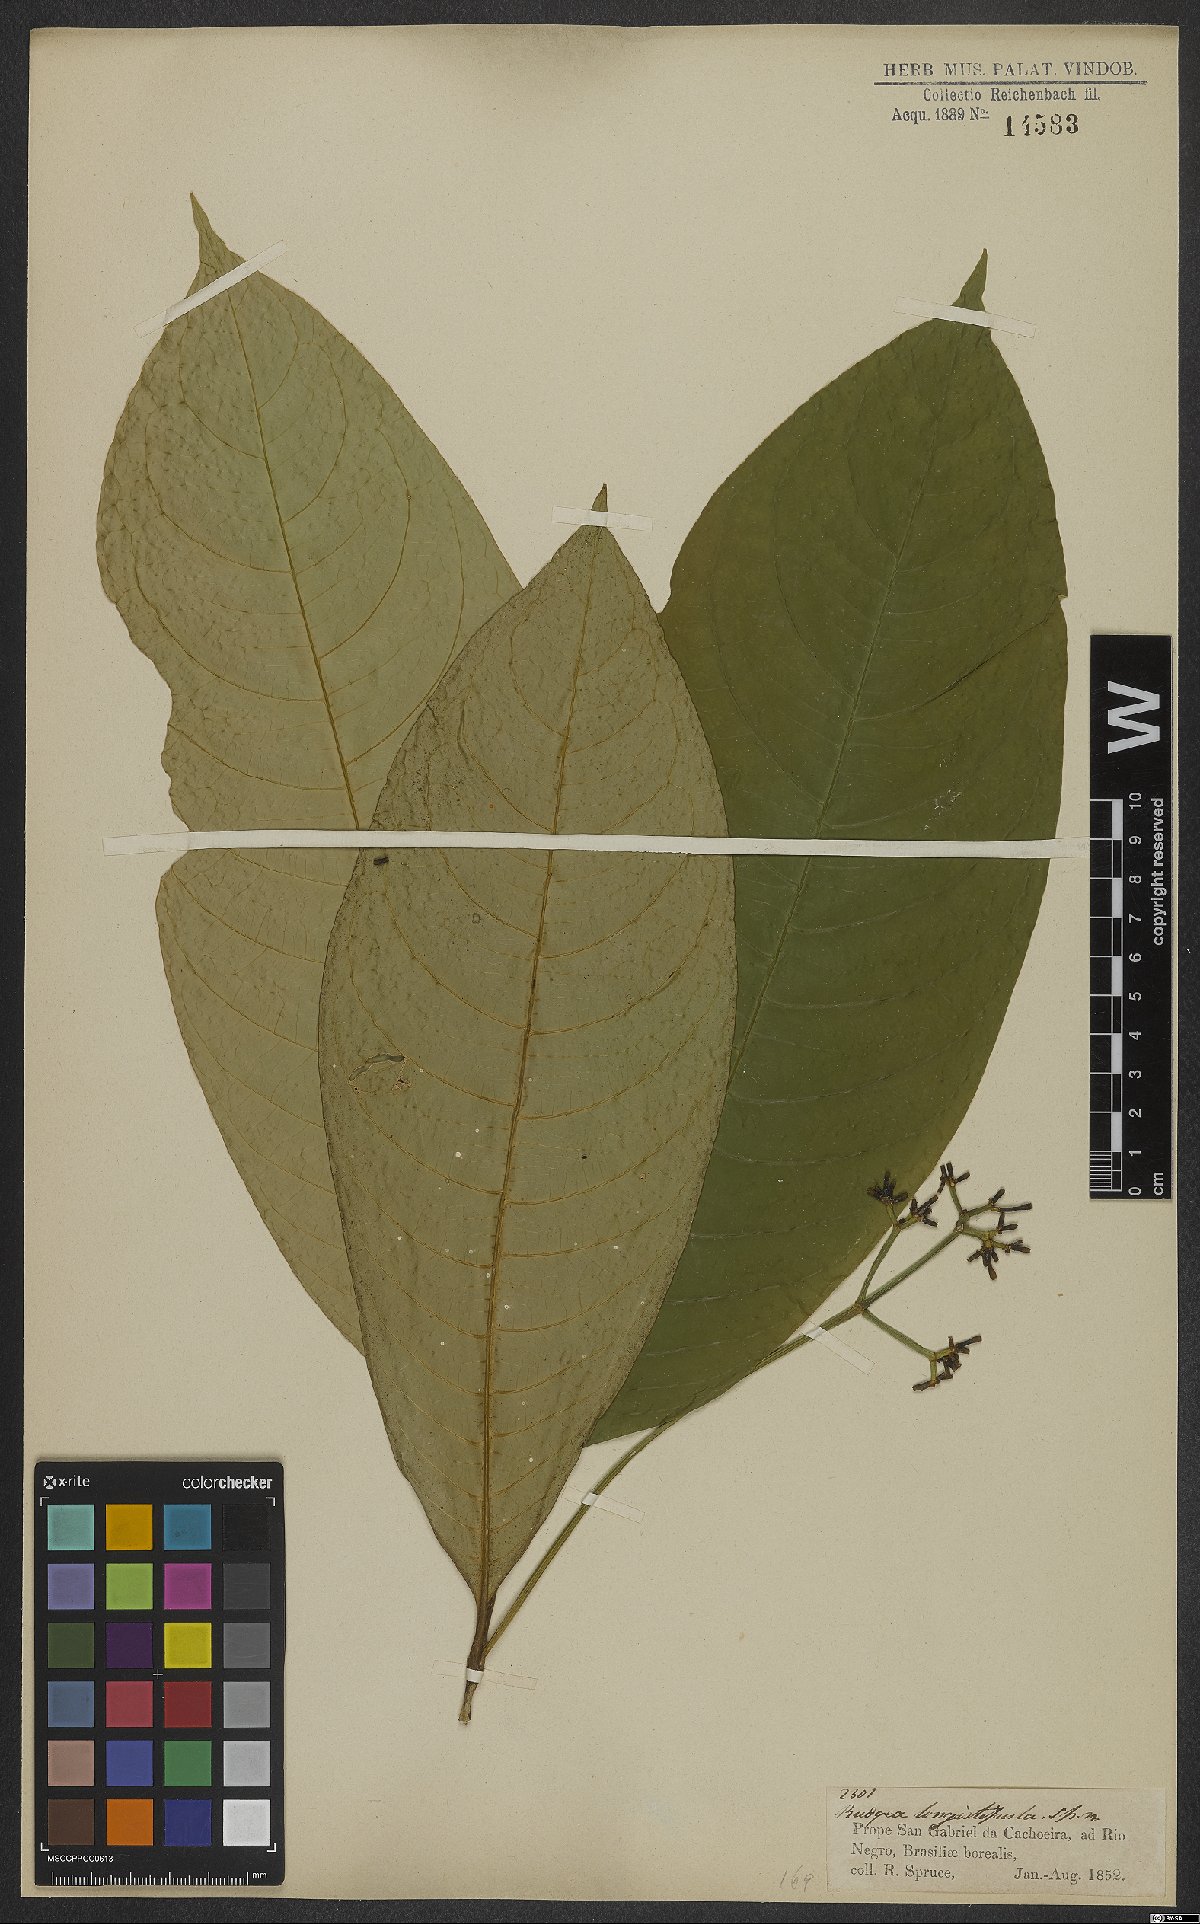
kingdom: Plantae
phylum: Tracheophyta
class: Magnoliopsida
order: Gentianales
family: Rubiaceae
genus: Rudgea
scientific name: Rudgea stipulacea
